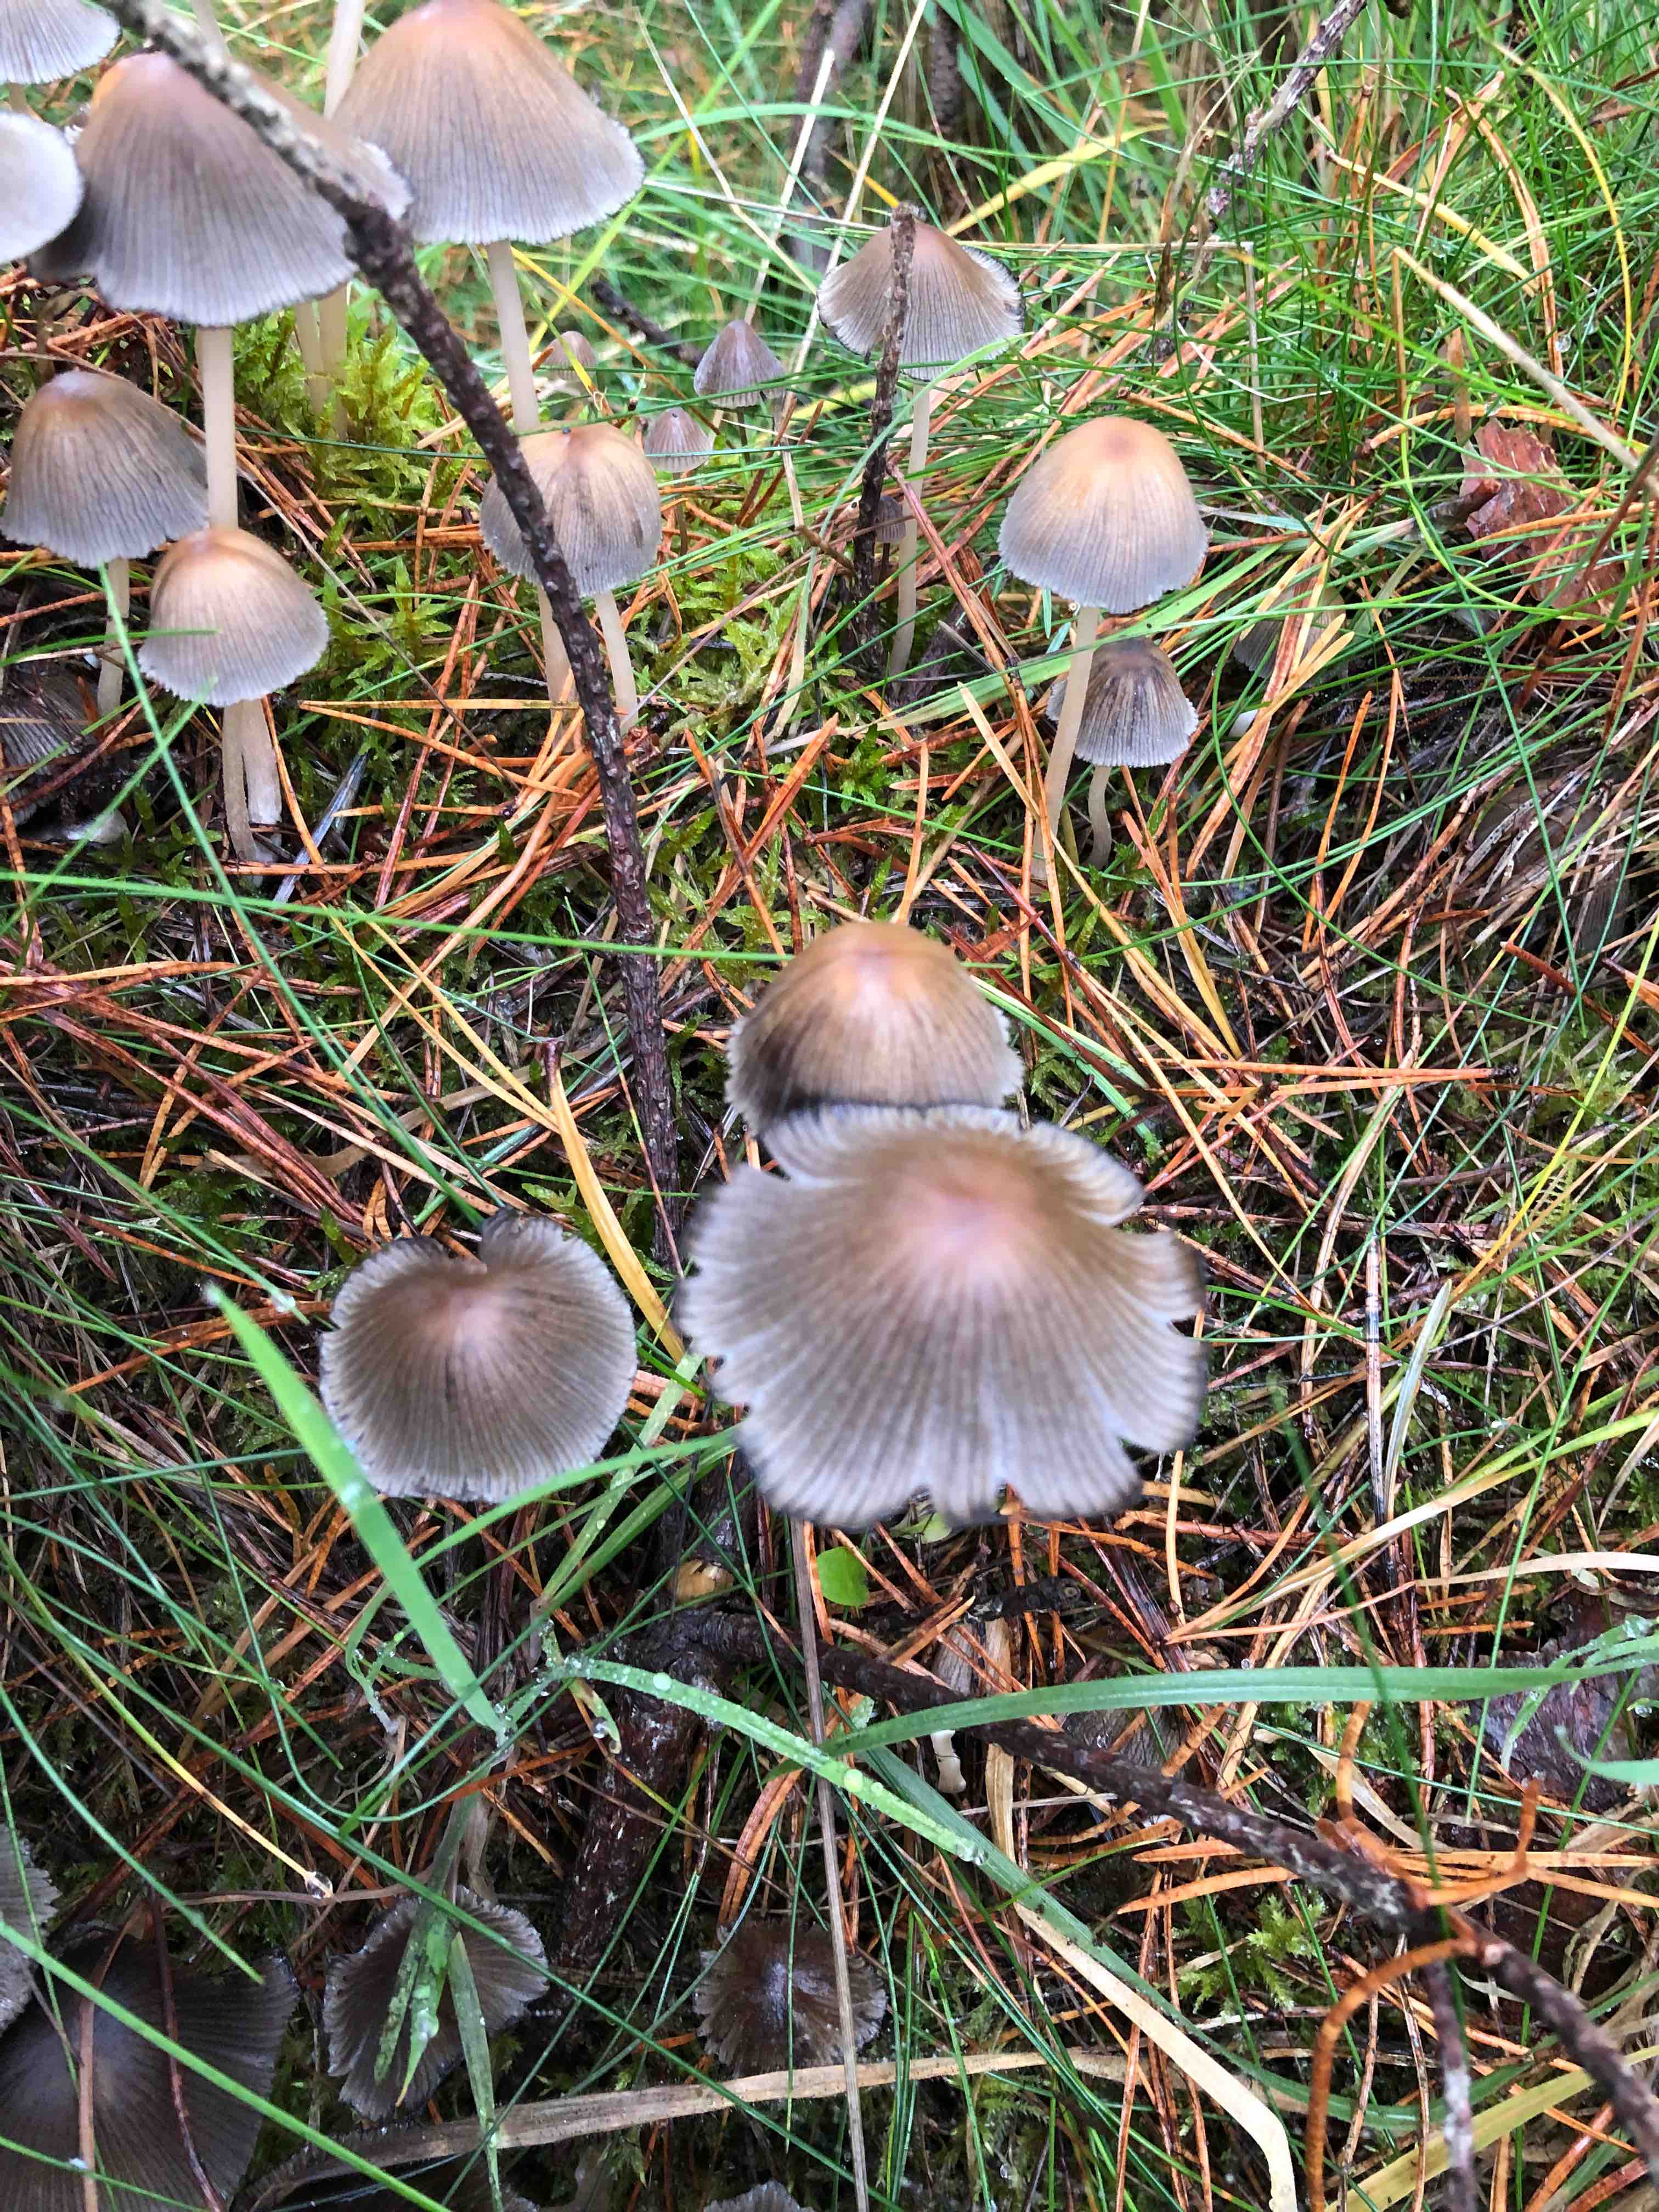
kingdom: Fungi
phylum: Basidiomycota
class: Agaricomycetes
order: Agaricales
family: Psathyrellaceae
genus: Coprinellus
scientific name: Coprinellus
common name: blækhat
